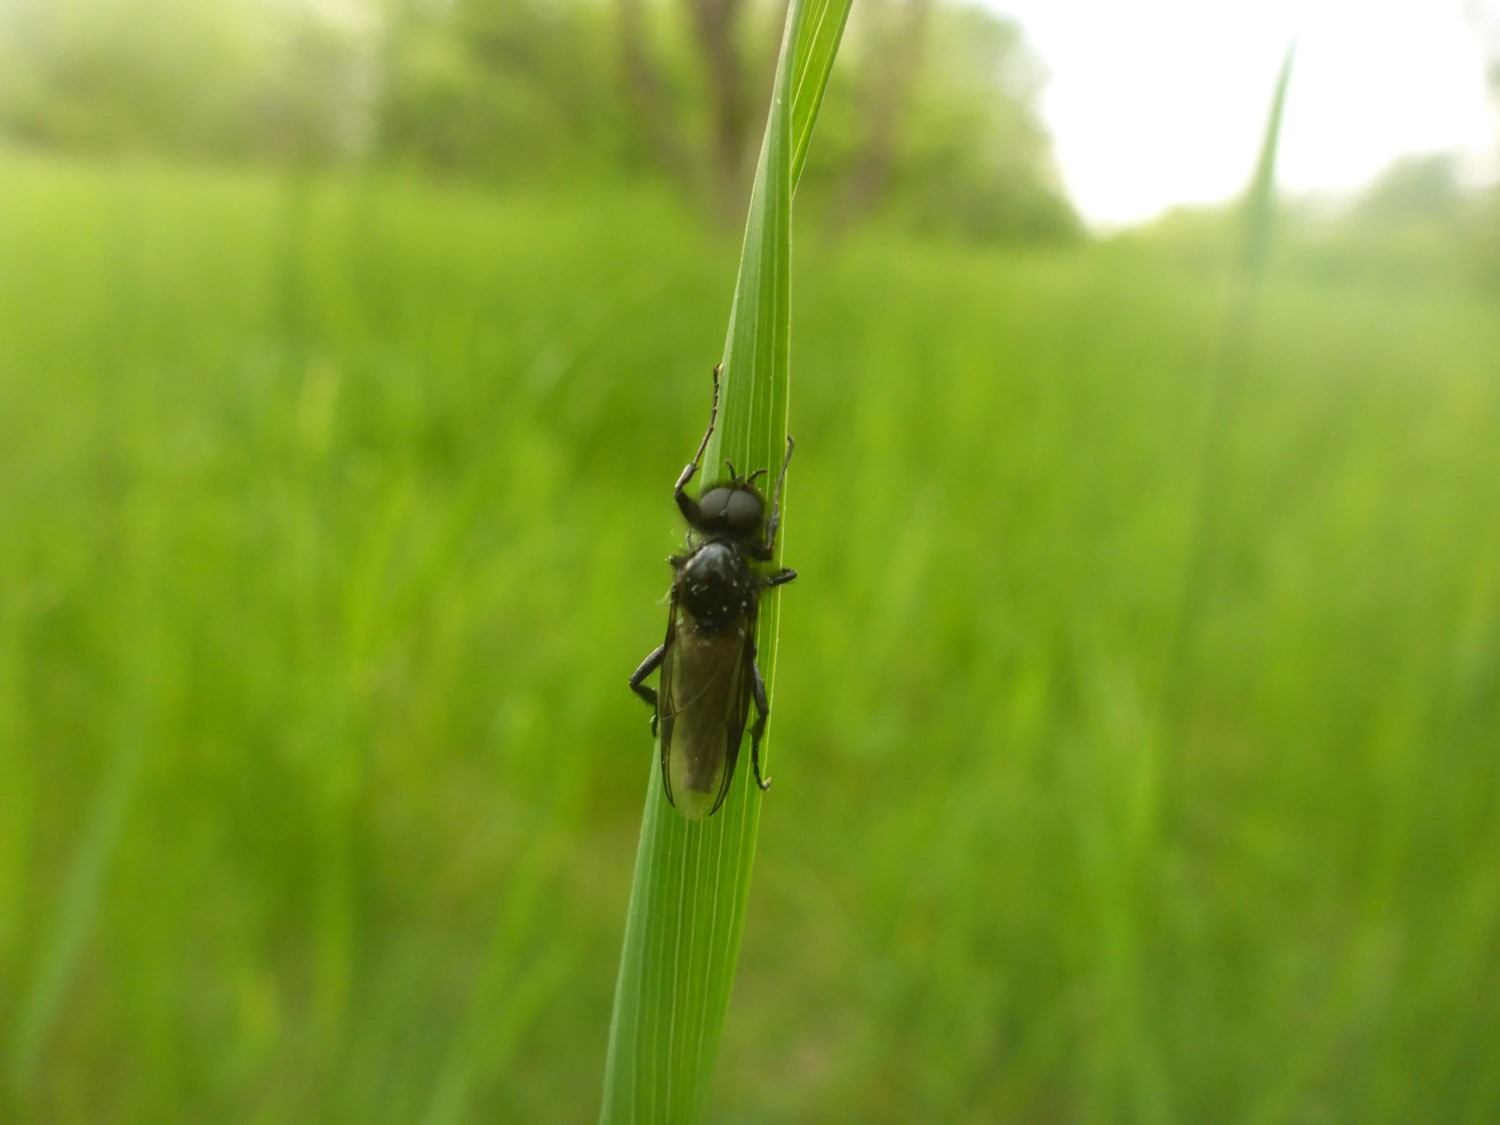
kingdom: Animalia
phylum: Arthropoda
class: Insecta
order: Diptera
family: Bibionidae
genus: Bibio
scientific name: Bibio marci
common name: Skovhårmyg
